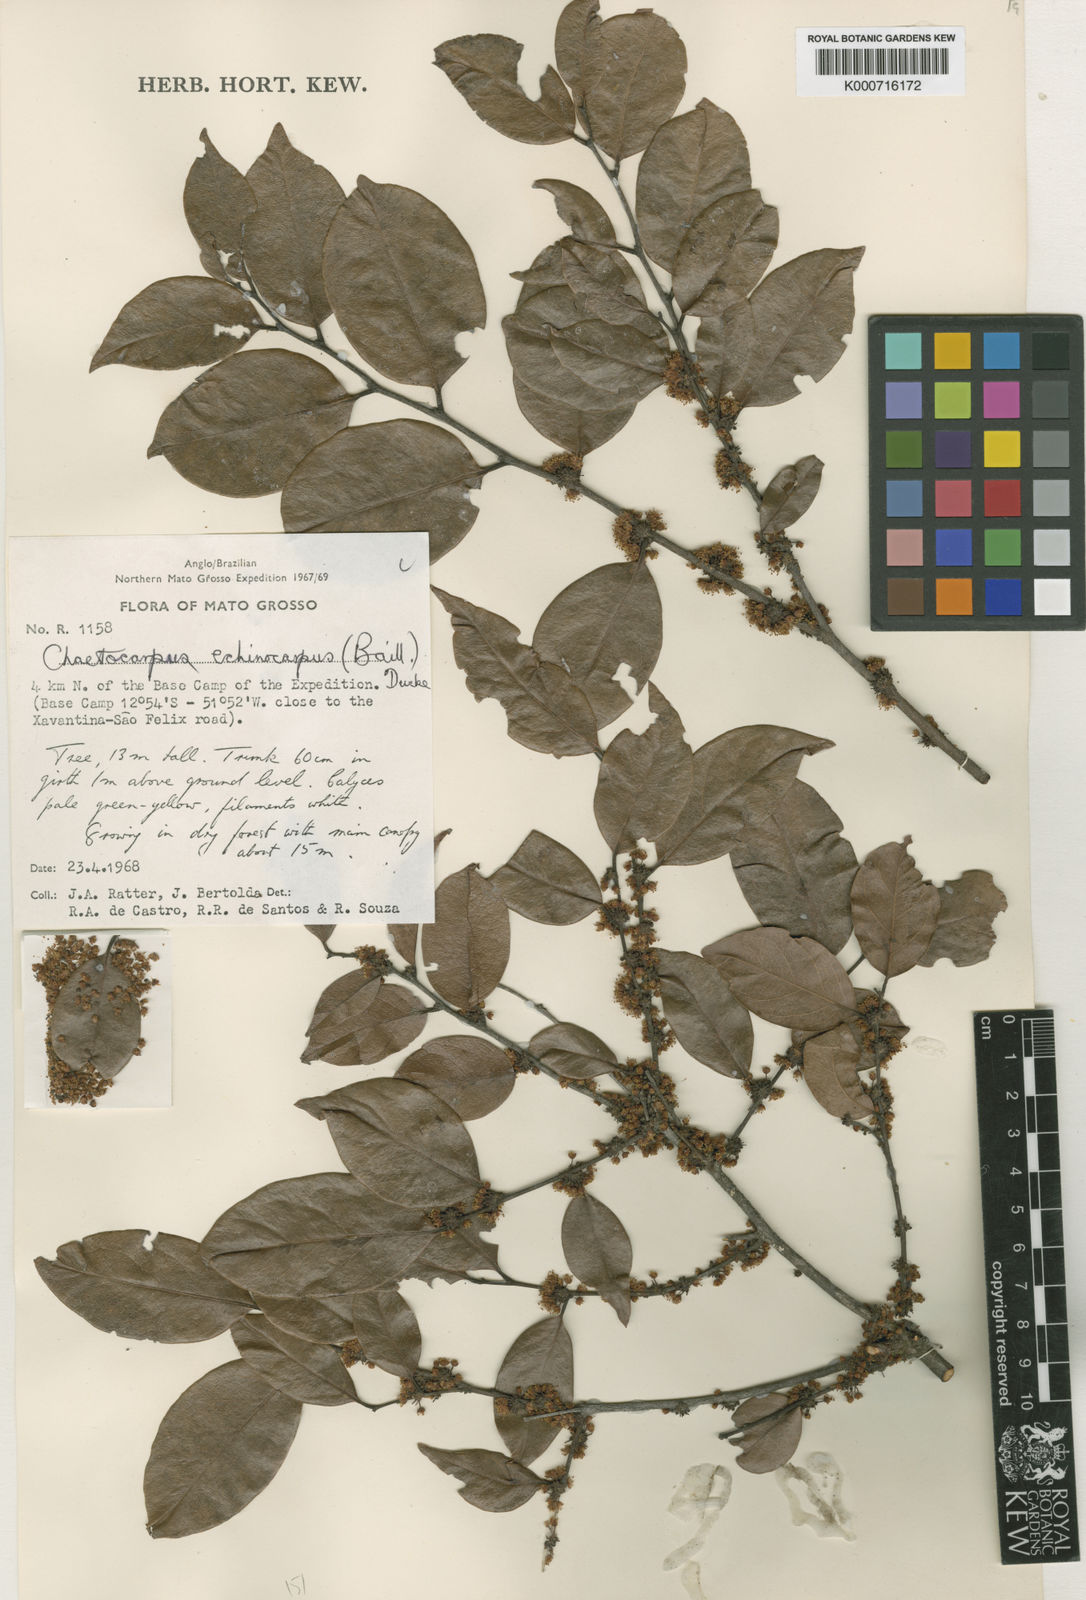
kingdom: Plantae
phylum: Tracheophyta
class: Magnoliopsida
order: Malpighiales
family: Peraceae
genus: Chaetocarpus
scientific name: Chaetocarpus echinocarpus
